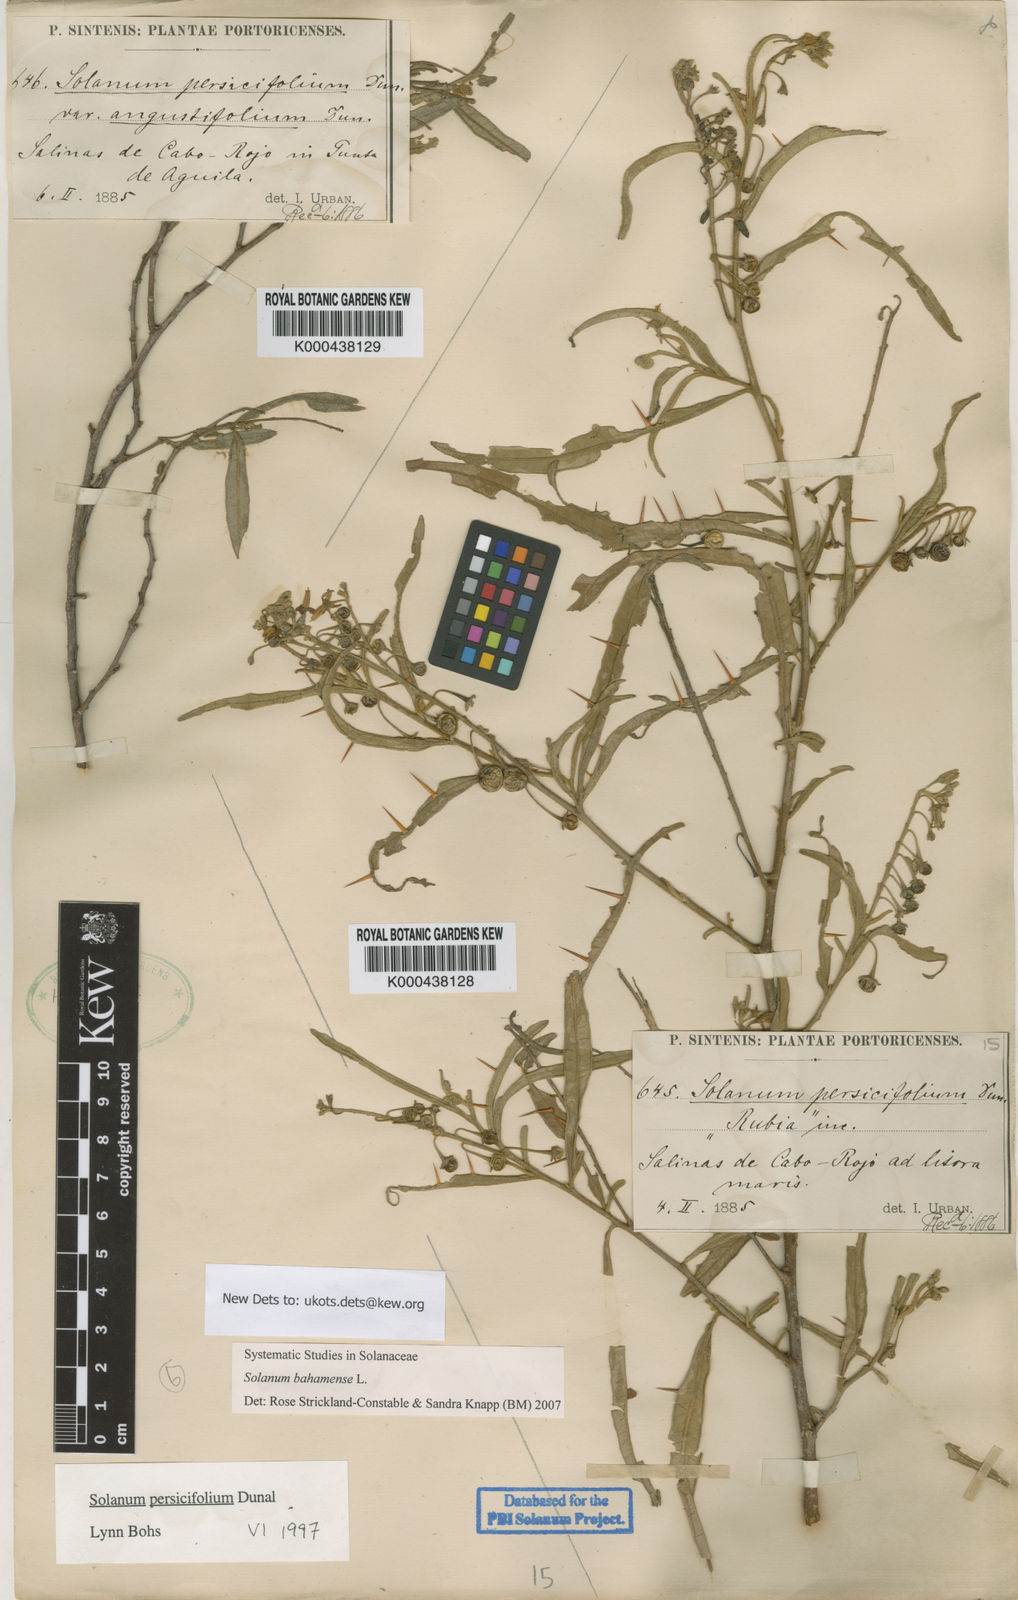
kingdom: Plantae
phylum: Tracheophyta
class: Magnoliopsida
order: Solanales
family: Solanaceae
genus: Solanum
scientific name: Solanum bahamense
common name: Canker-berry
